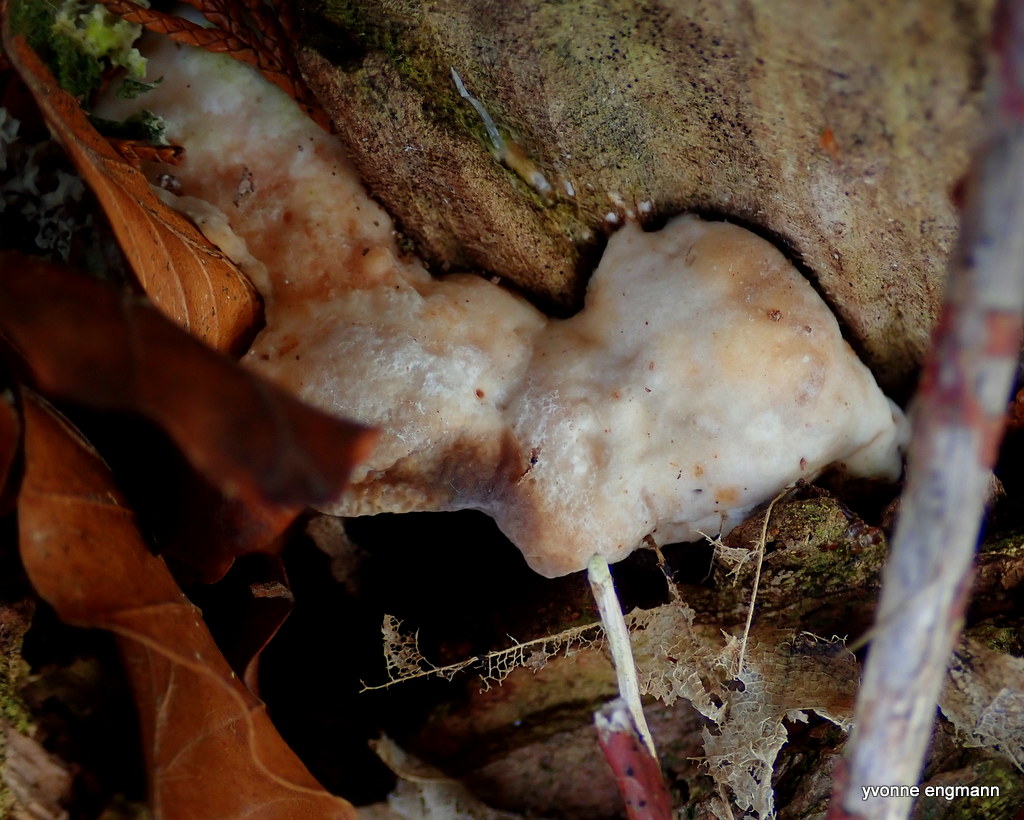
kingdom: Fungi
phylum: Basidiomycota
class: Agaricomycetes
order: Polyporales
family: Polyporaceae
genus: Trametes
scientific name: Trametes gibbosa
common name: puklet læderporesvamp
